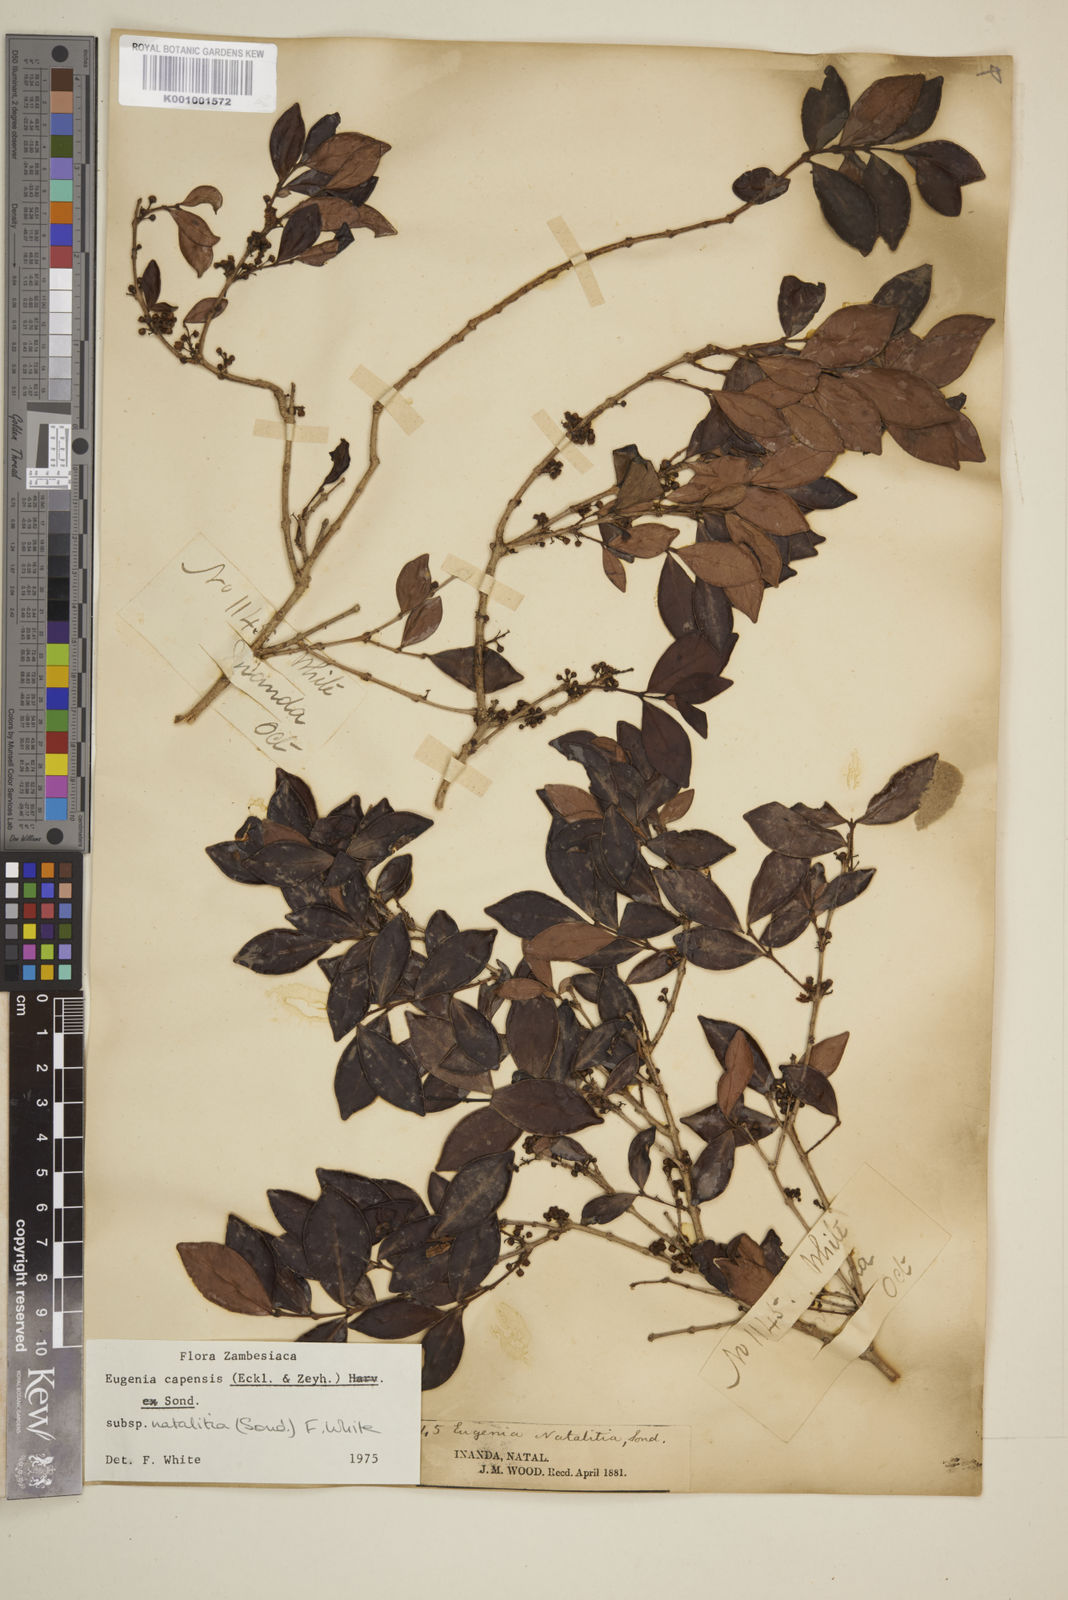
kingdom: Plantae
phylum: Tracheophyta
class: Magnoliopsida
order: Myrtales
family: Myrtaceae
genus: Eugenia
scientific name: Eugenia natalitia
